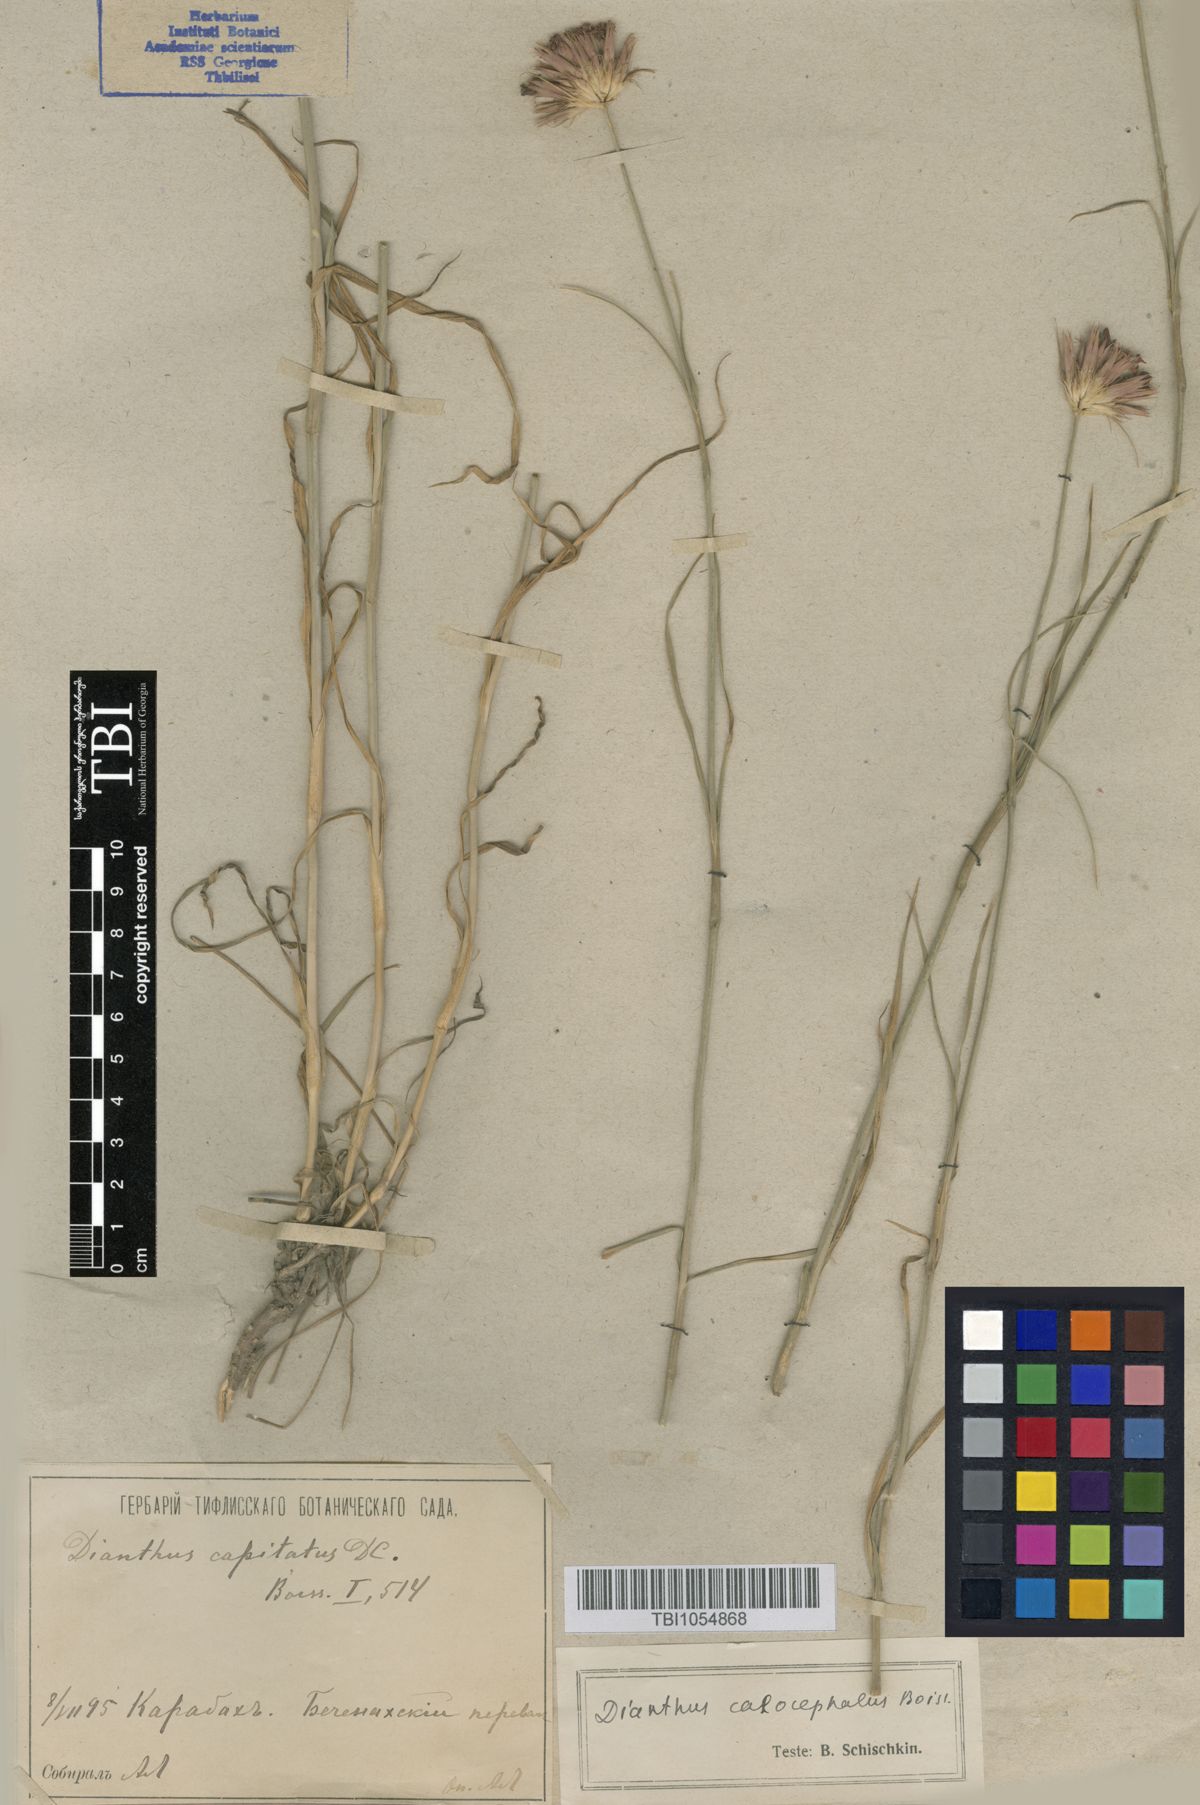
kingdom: Plantae
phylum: Tracheophyta
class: Magnoliopsida
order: Caryophyllales
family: Caryophyllaceae
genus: Dianthus
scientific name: Dianthus cruentus
